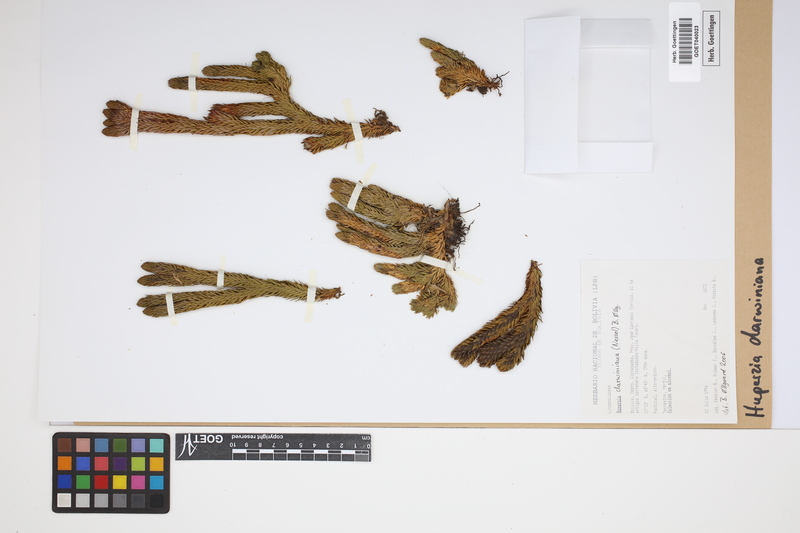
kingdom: Plantae
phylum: Tracheophyta
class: Lycopodiopsida
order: Lycopodiales
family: Lycopodiaceae
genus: Phlegmariurus
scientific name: Phlegmariurus darwinianus
